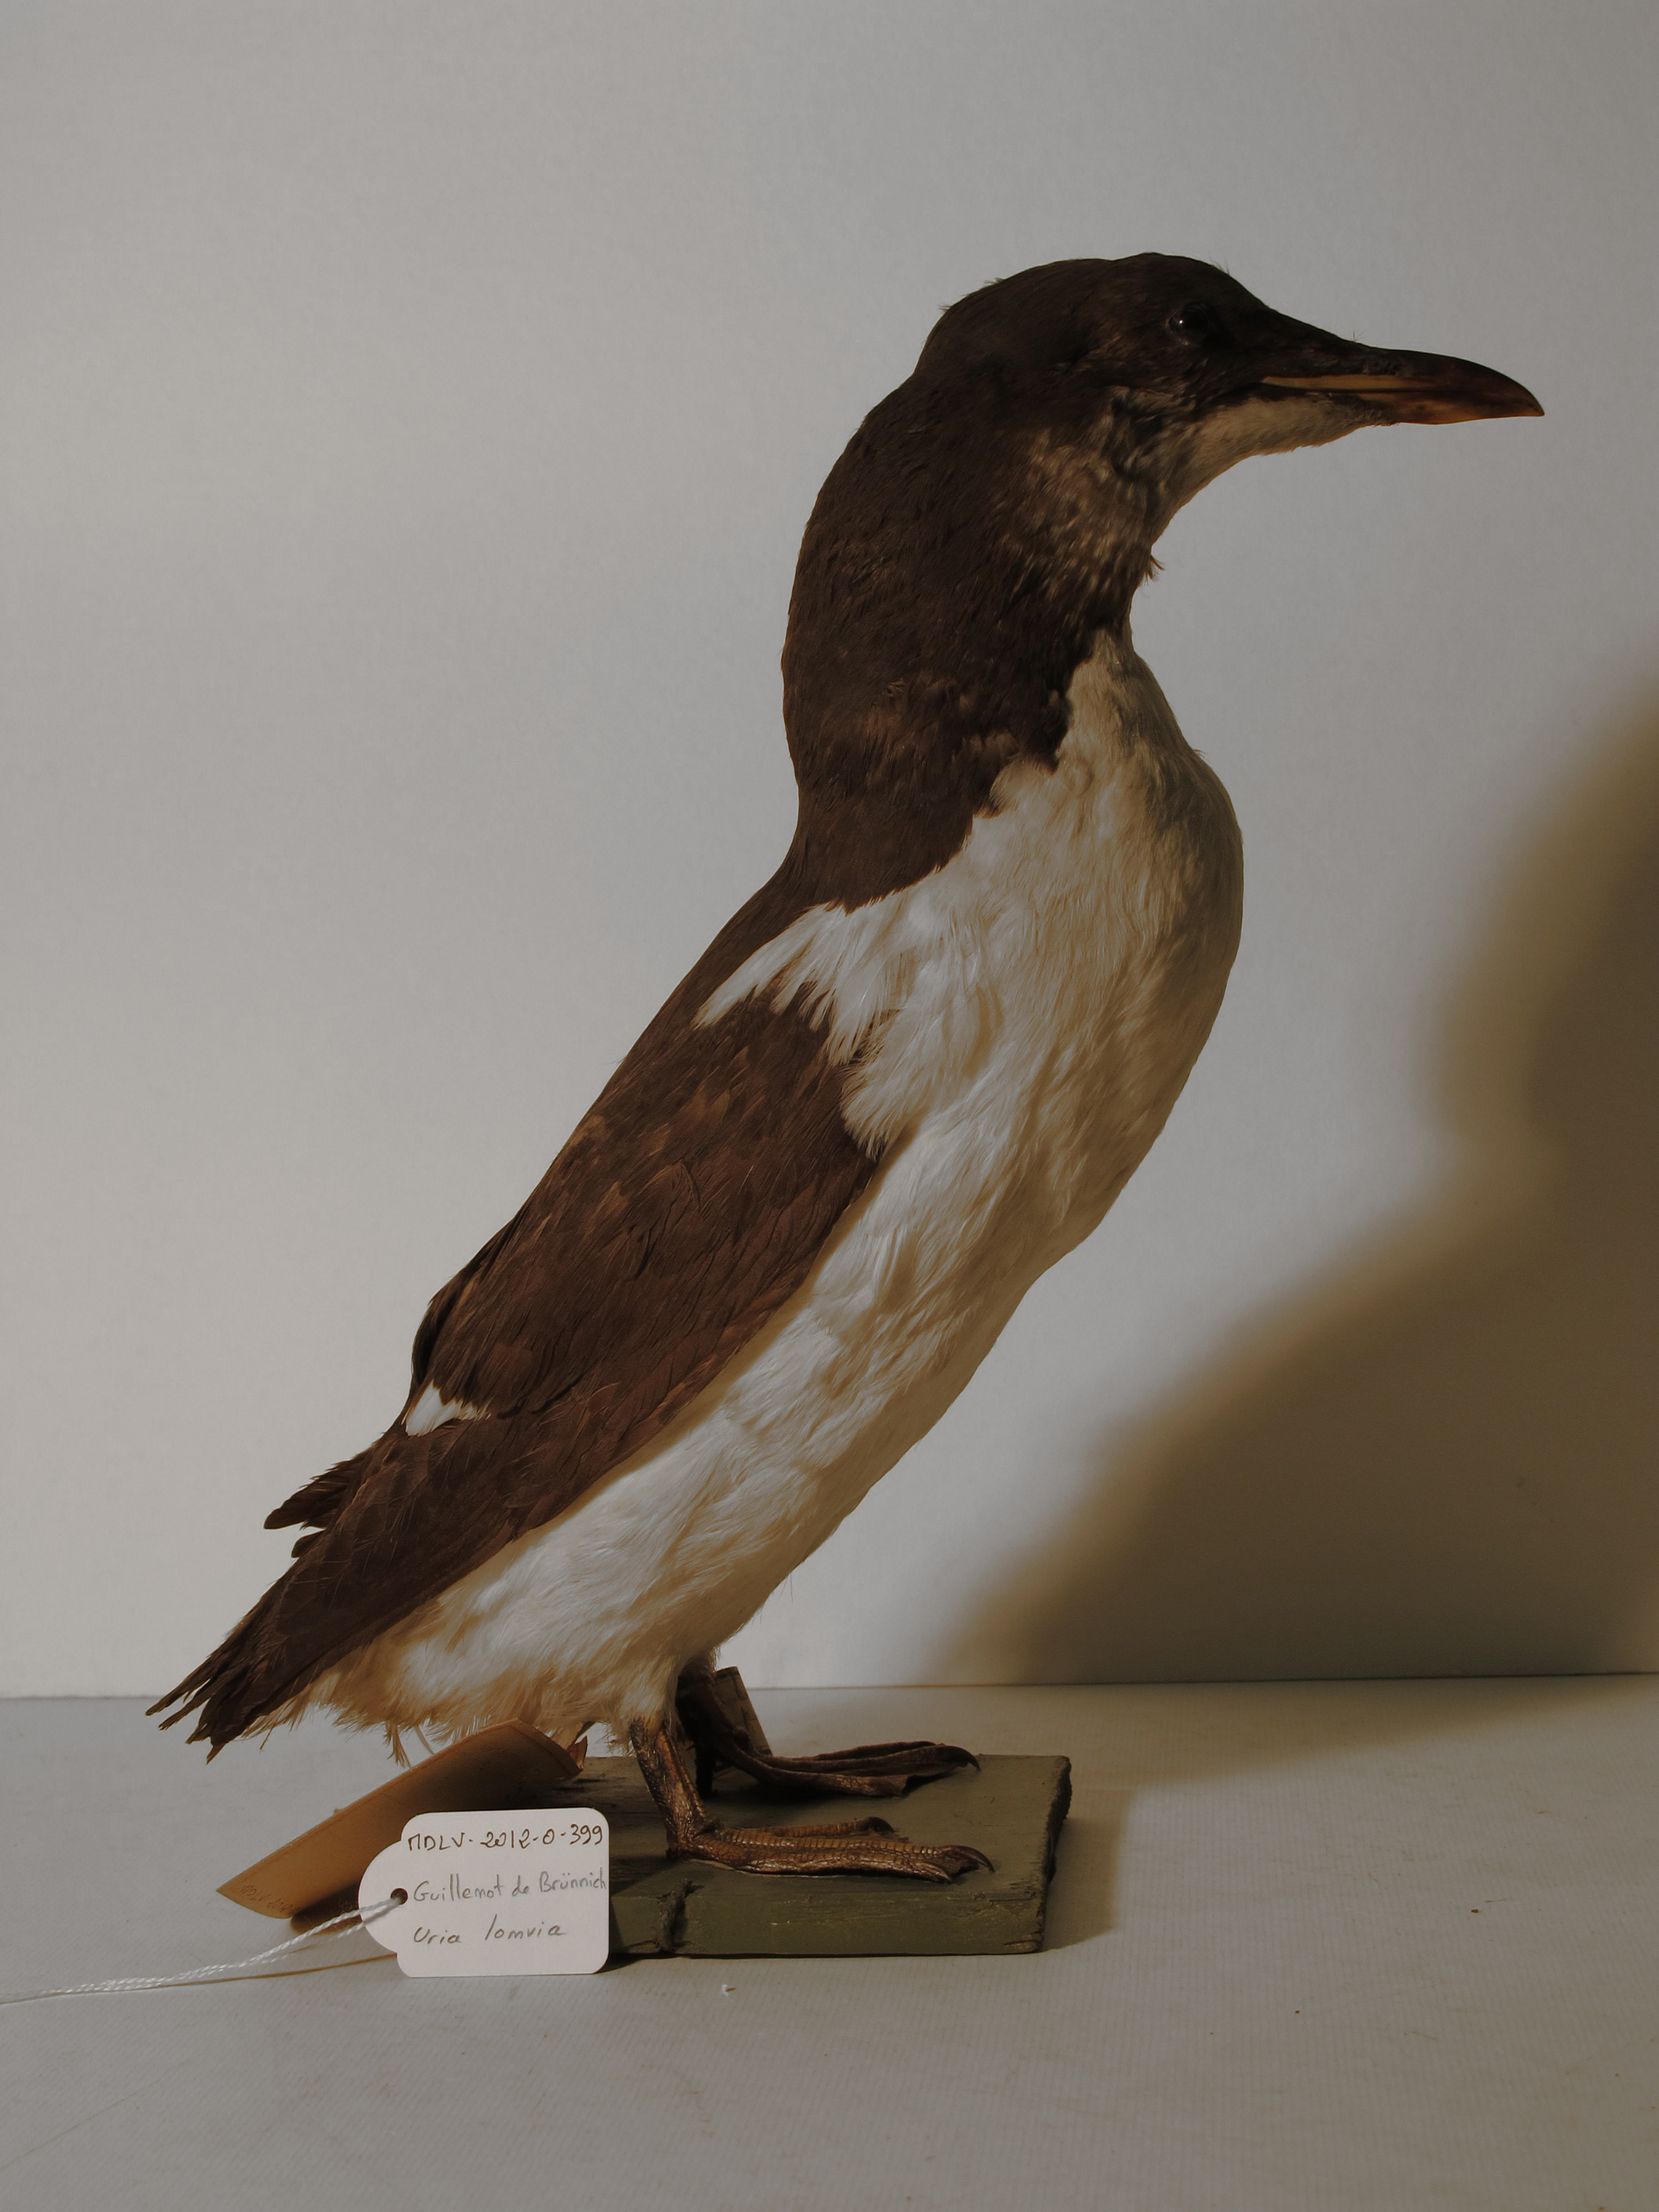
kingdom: Animalia
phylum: Chordata
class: Aves
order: Charadriiformes
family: Alcidae
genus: Uria
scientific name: Uria lomvia
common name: Thick-billed Murre
